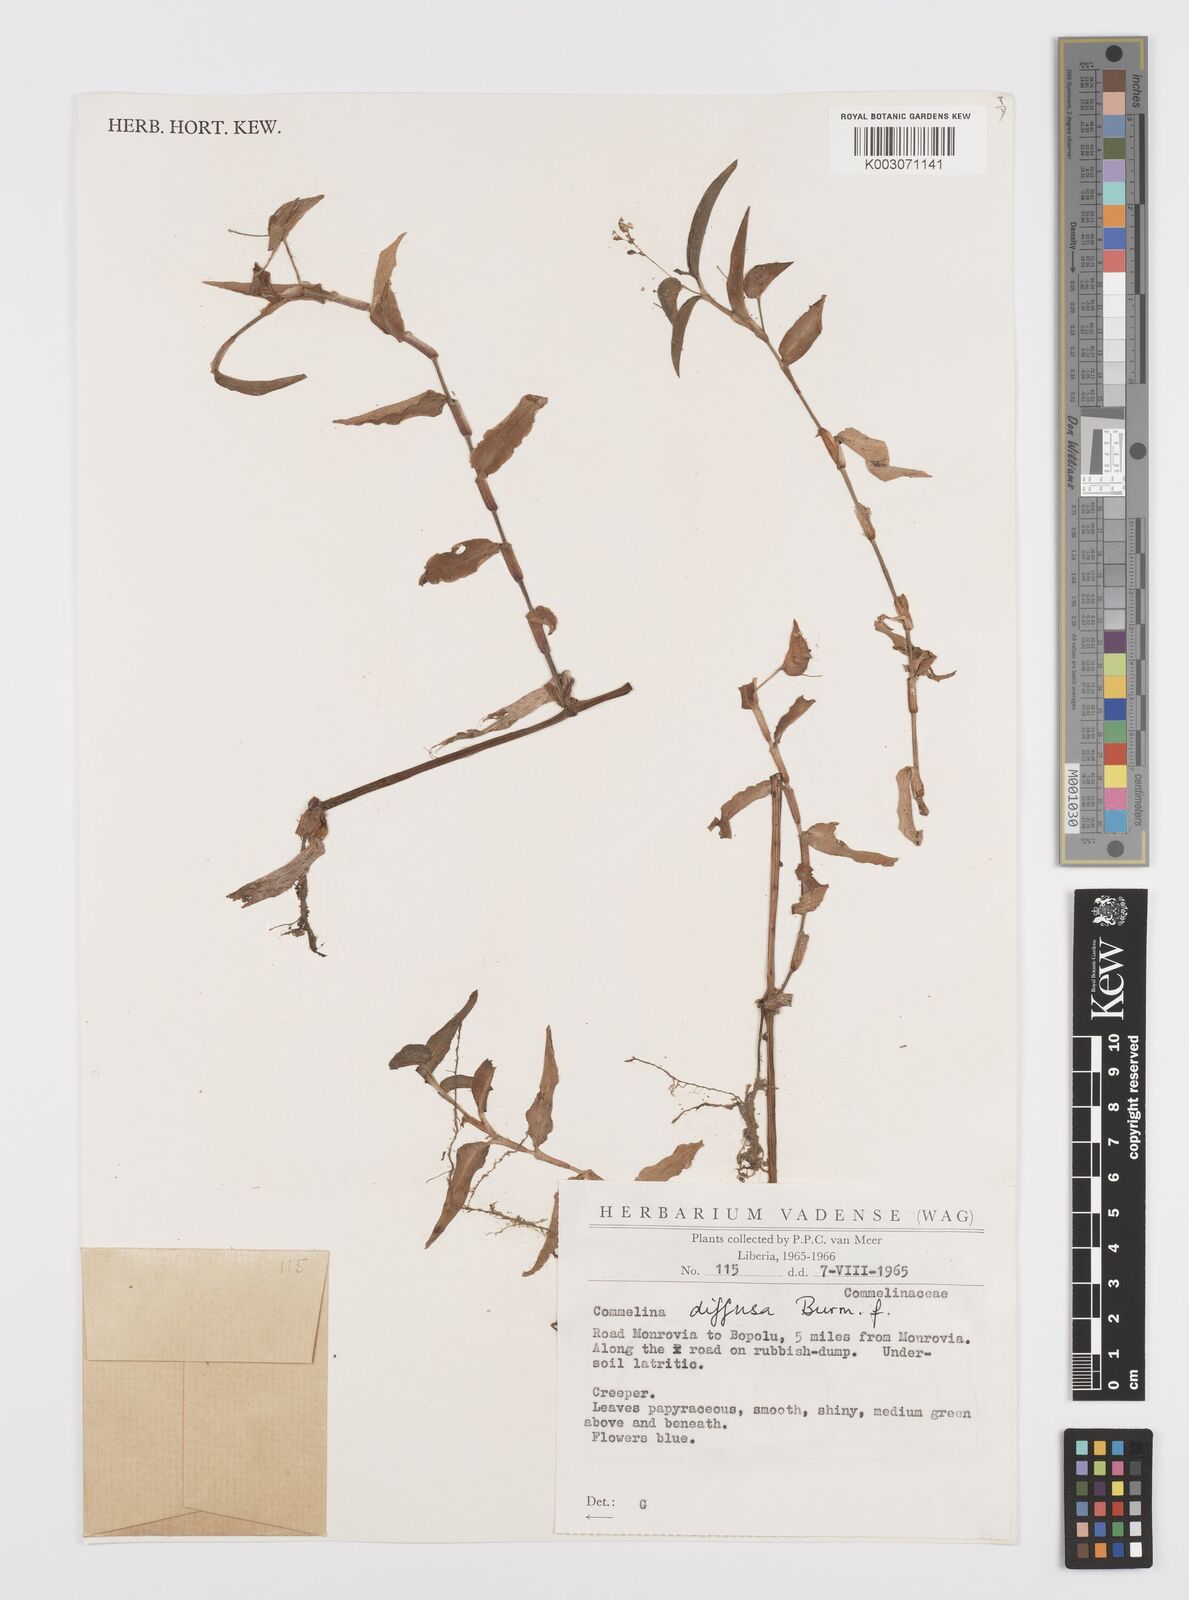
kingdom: Plantae
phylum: Tracheophyta
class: Liliopsida
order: Commelinales
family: Commelinaceae
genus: Commelina
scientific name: Commelina diffusa
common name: Climbing dayflower
